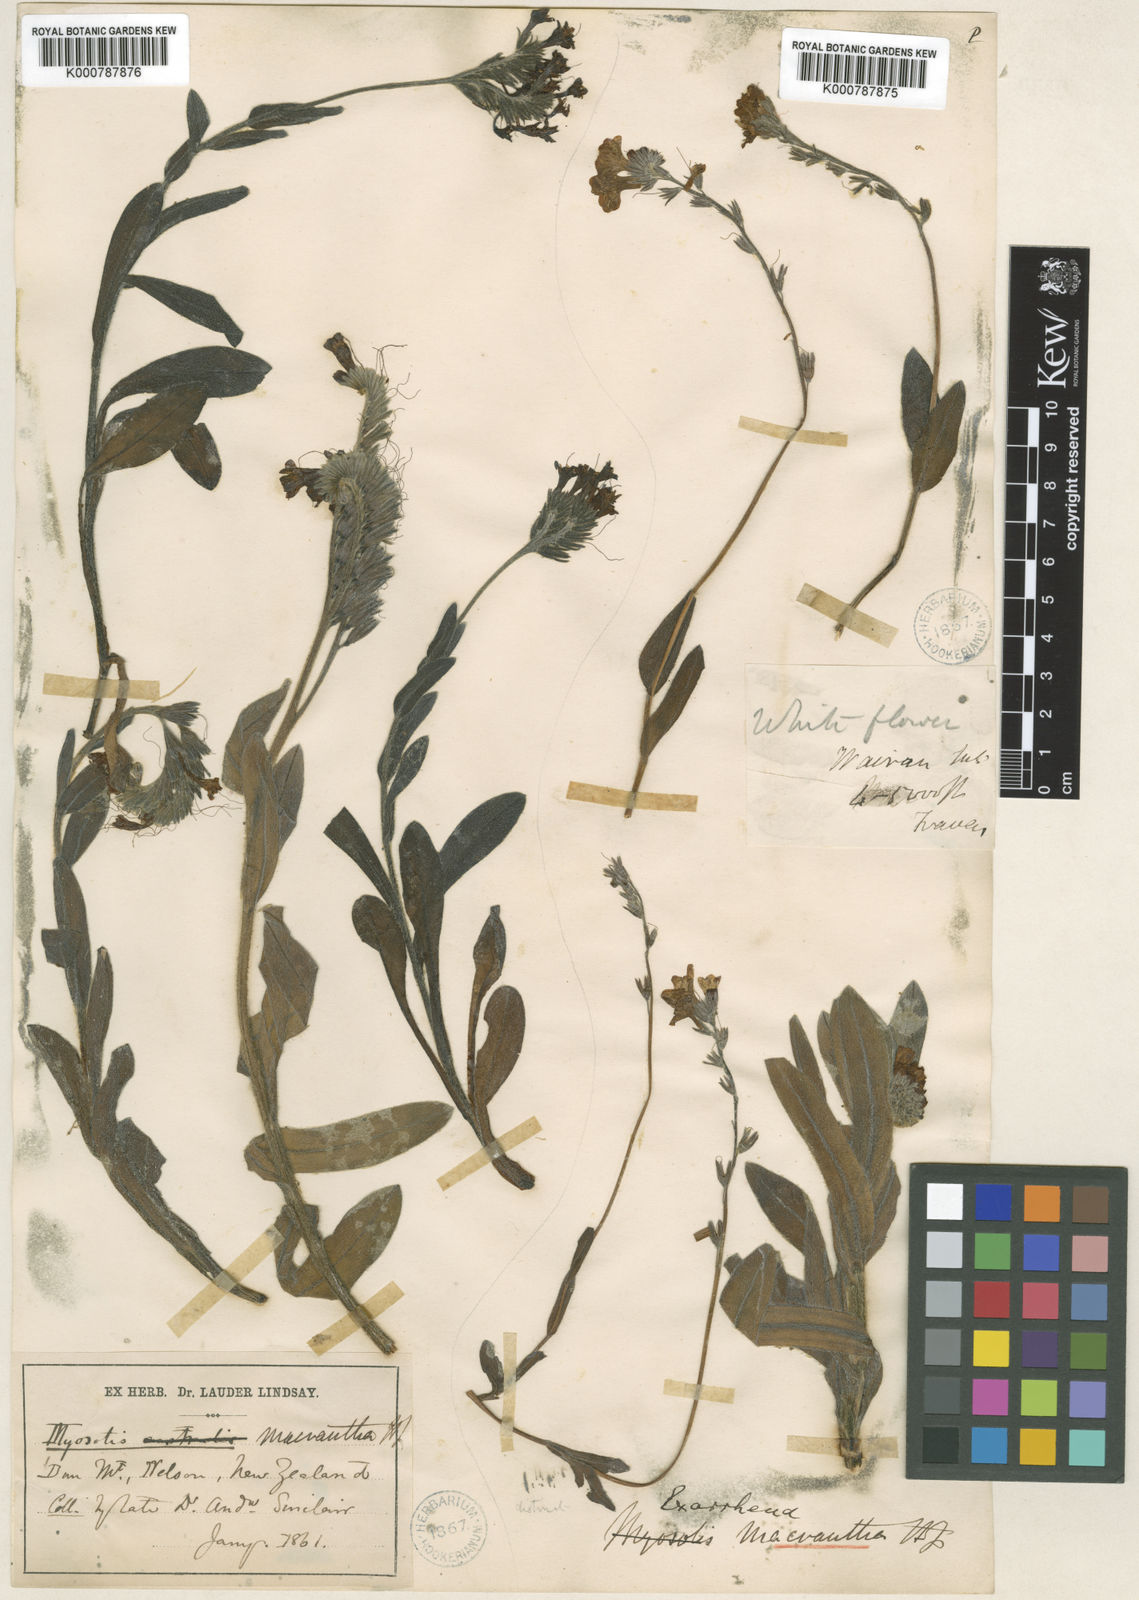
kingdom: Plantae
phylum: Tracheophyta
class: Magnoliopsida
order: Boraginales
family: Boraginaceae
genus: Myosotis
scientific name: Myosotis macrantha
